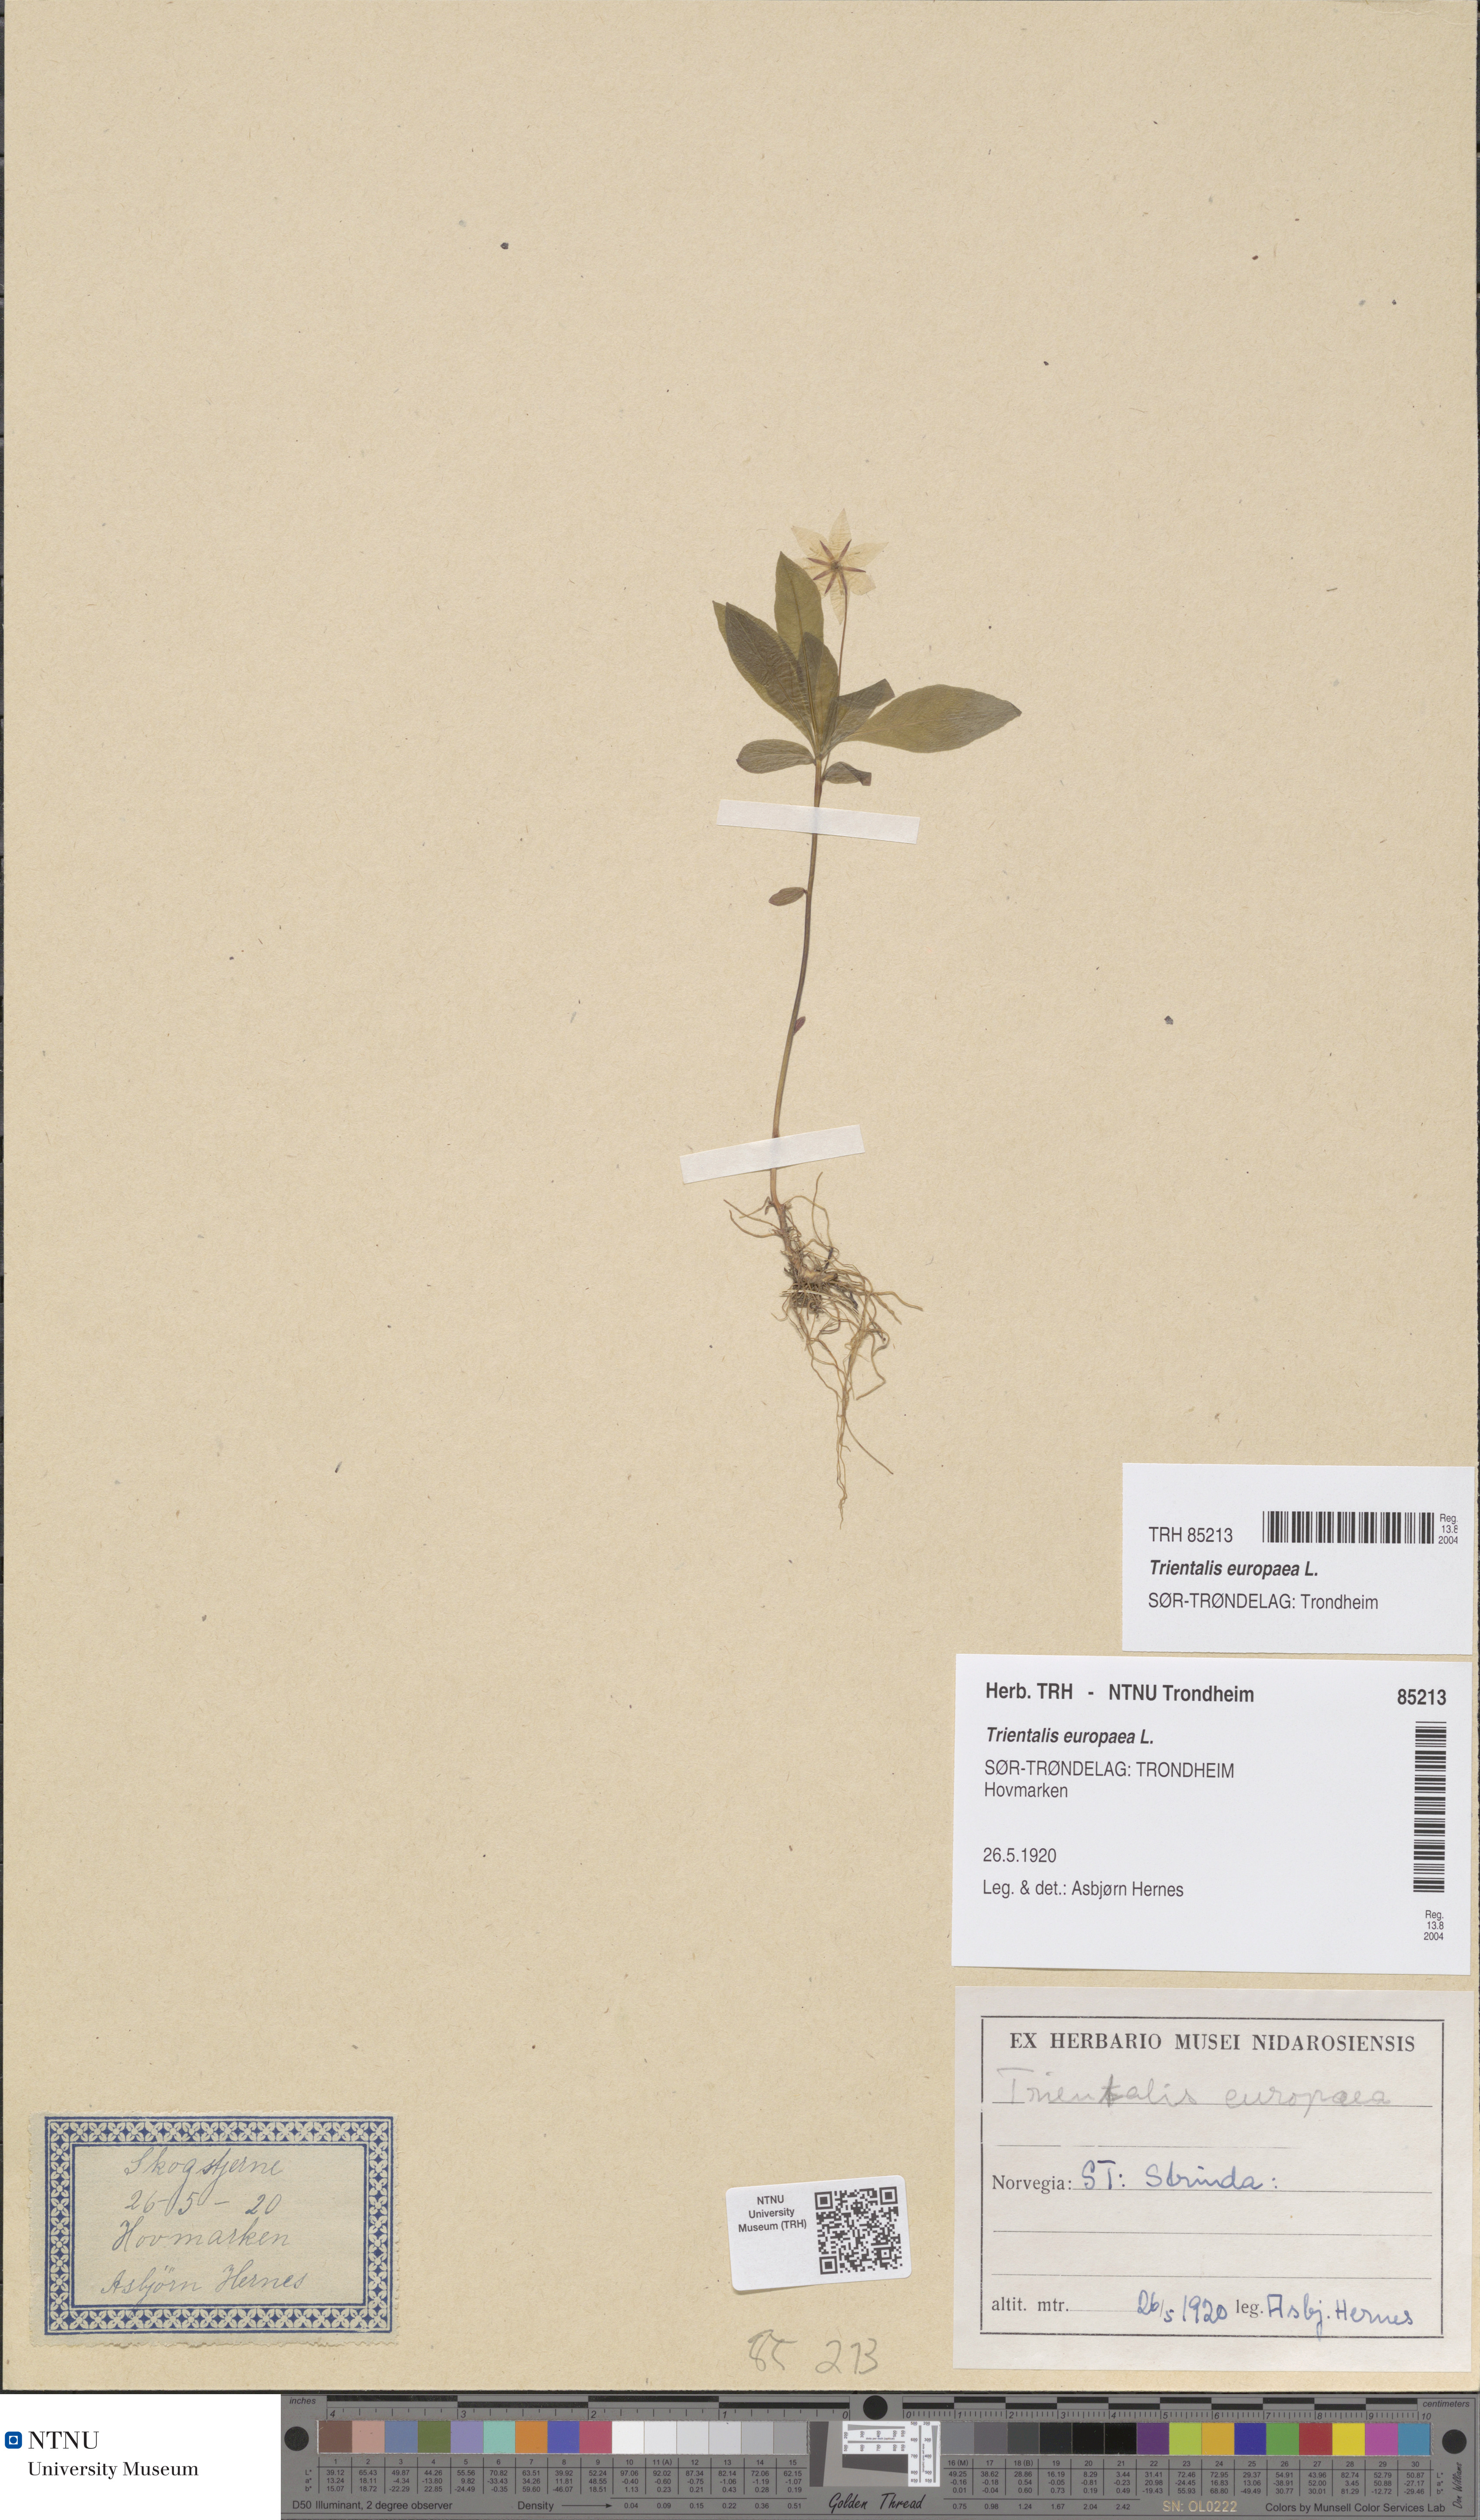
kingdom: Plantae
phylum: Tracheophyta
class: Magnoliopsida
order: Ericales
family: Primulaceae
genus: Lysimachia
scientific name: Lysimachia europaea
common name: Arctic starflower
